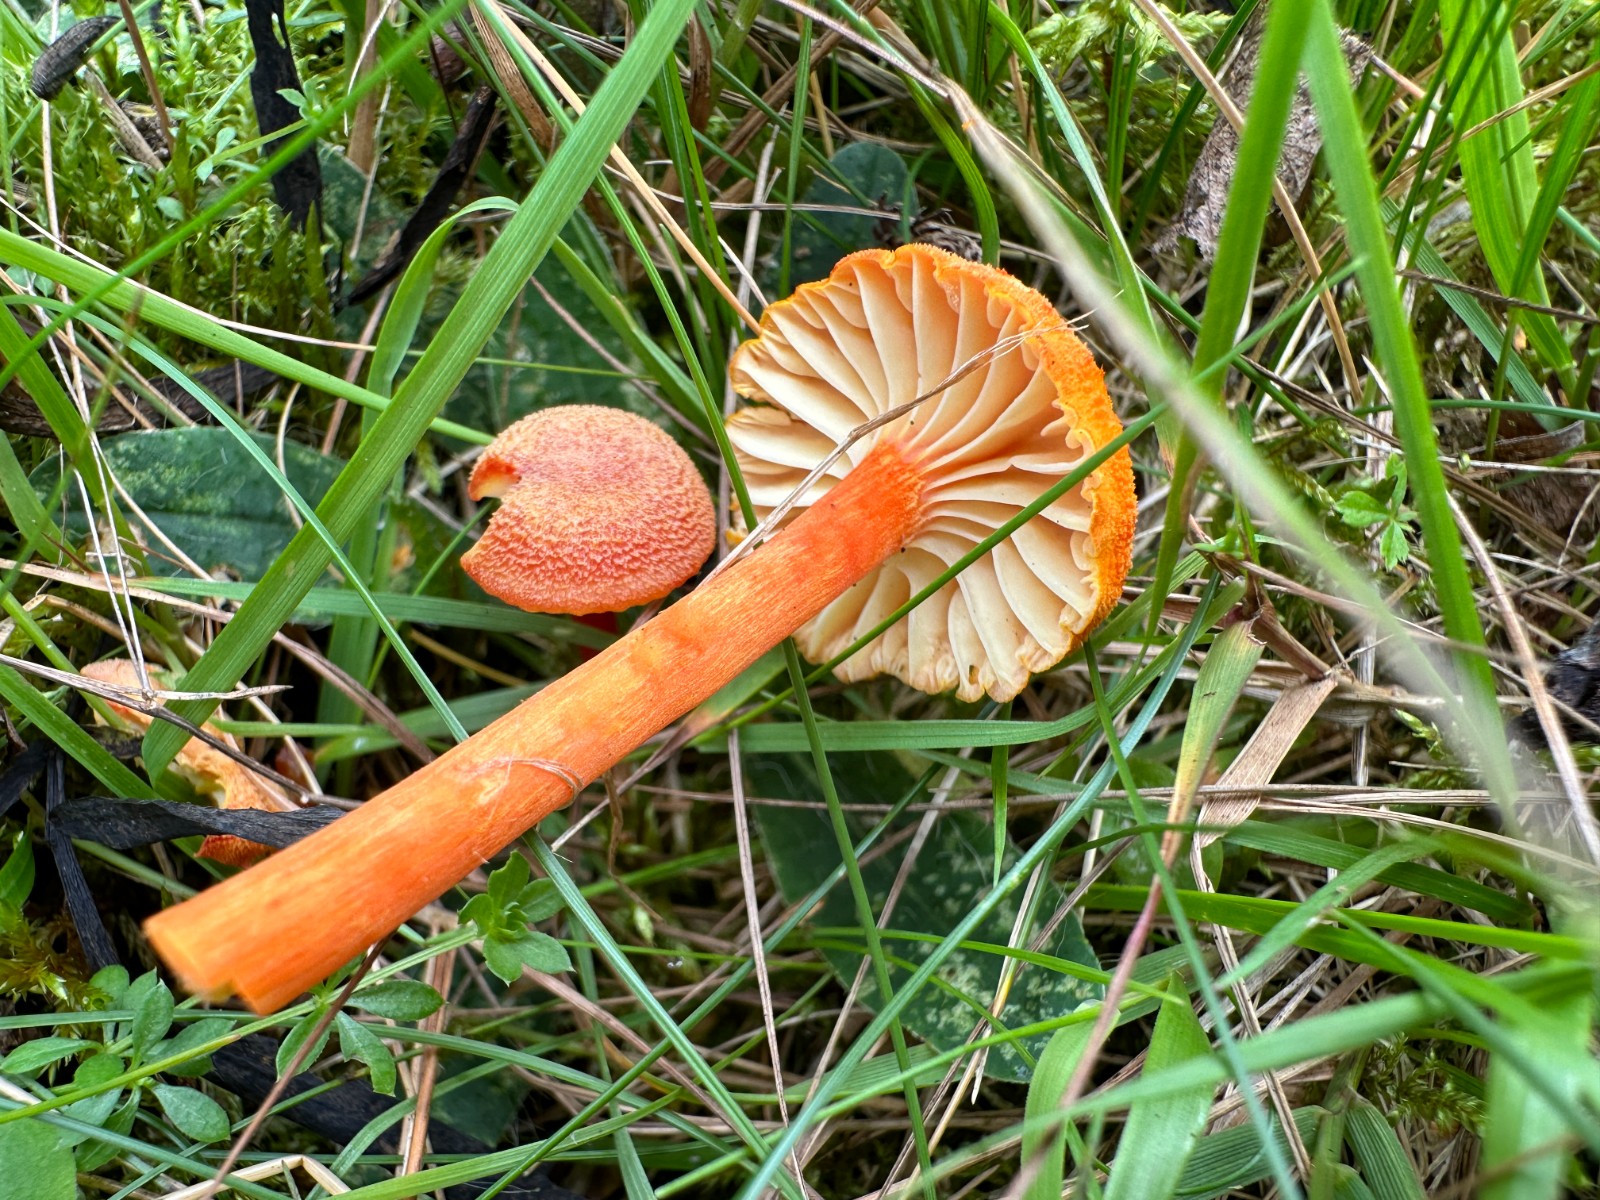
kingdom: Fungi
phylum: Basidiomycota
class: Agaricomycetes
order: Agaricales
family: Hygrophoraceae
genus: Hygrocybe
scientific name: Hygrocybe cantharellus
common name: kantarel-vokshat
